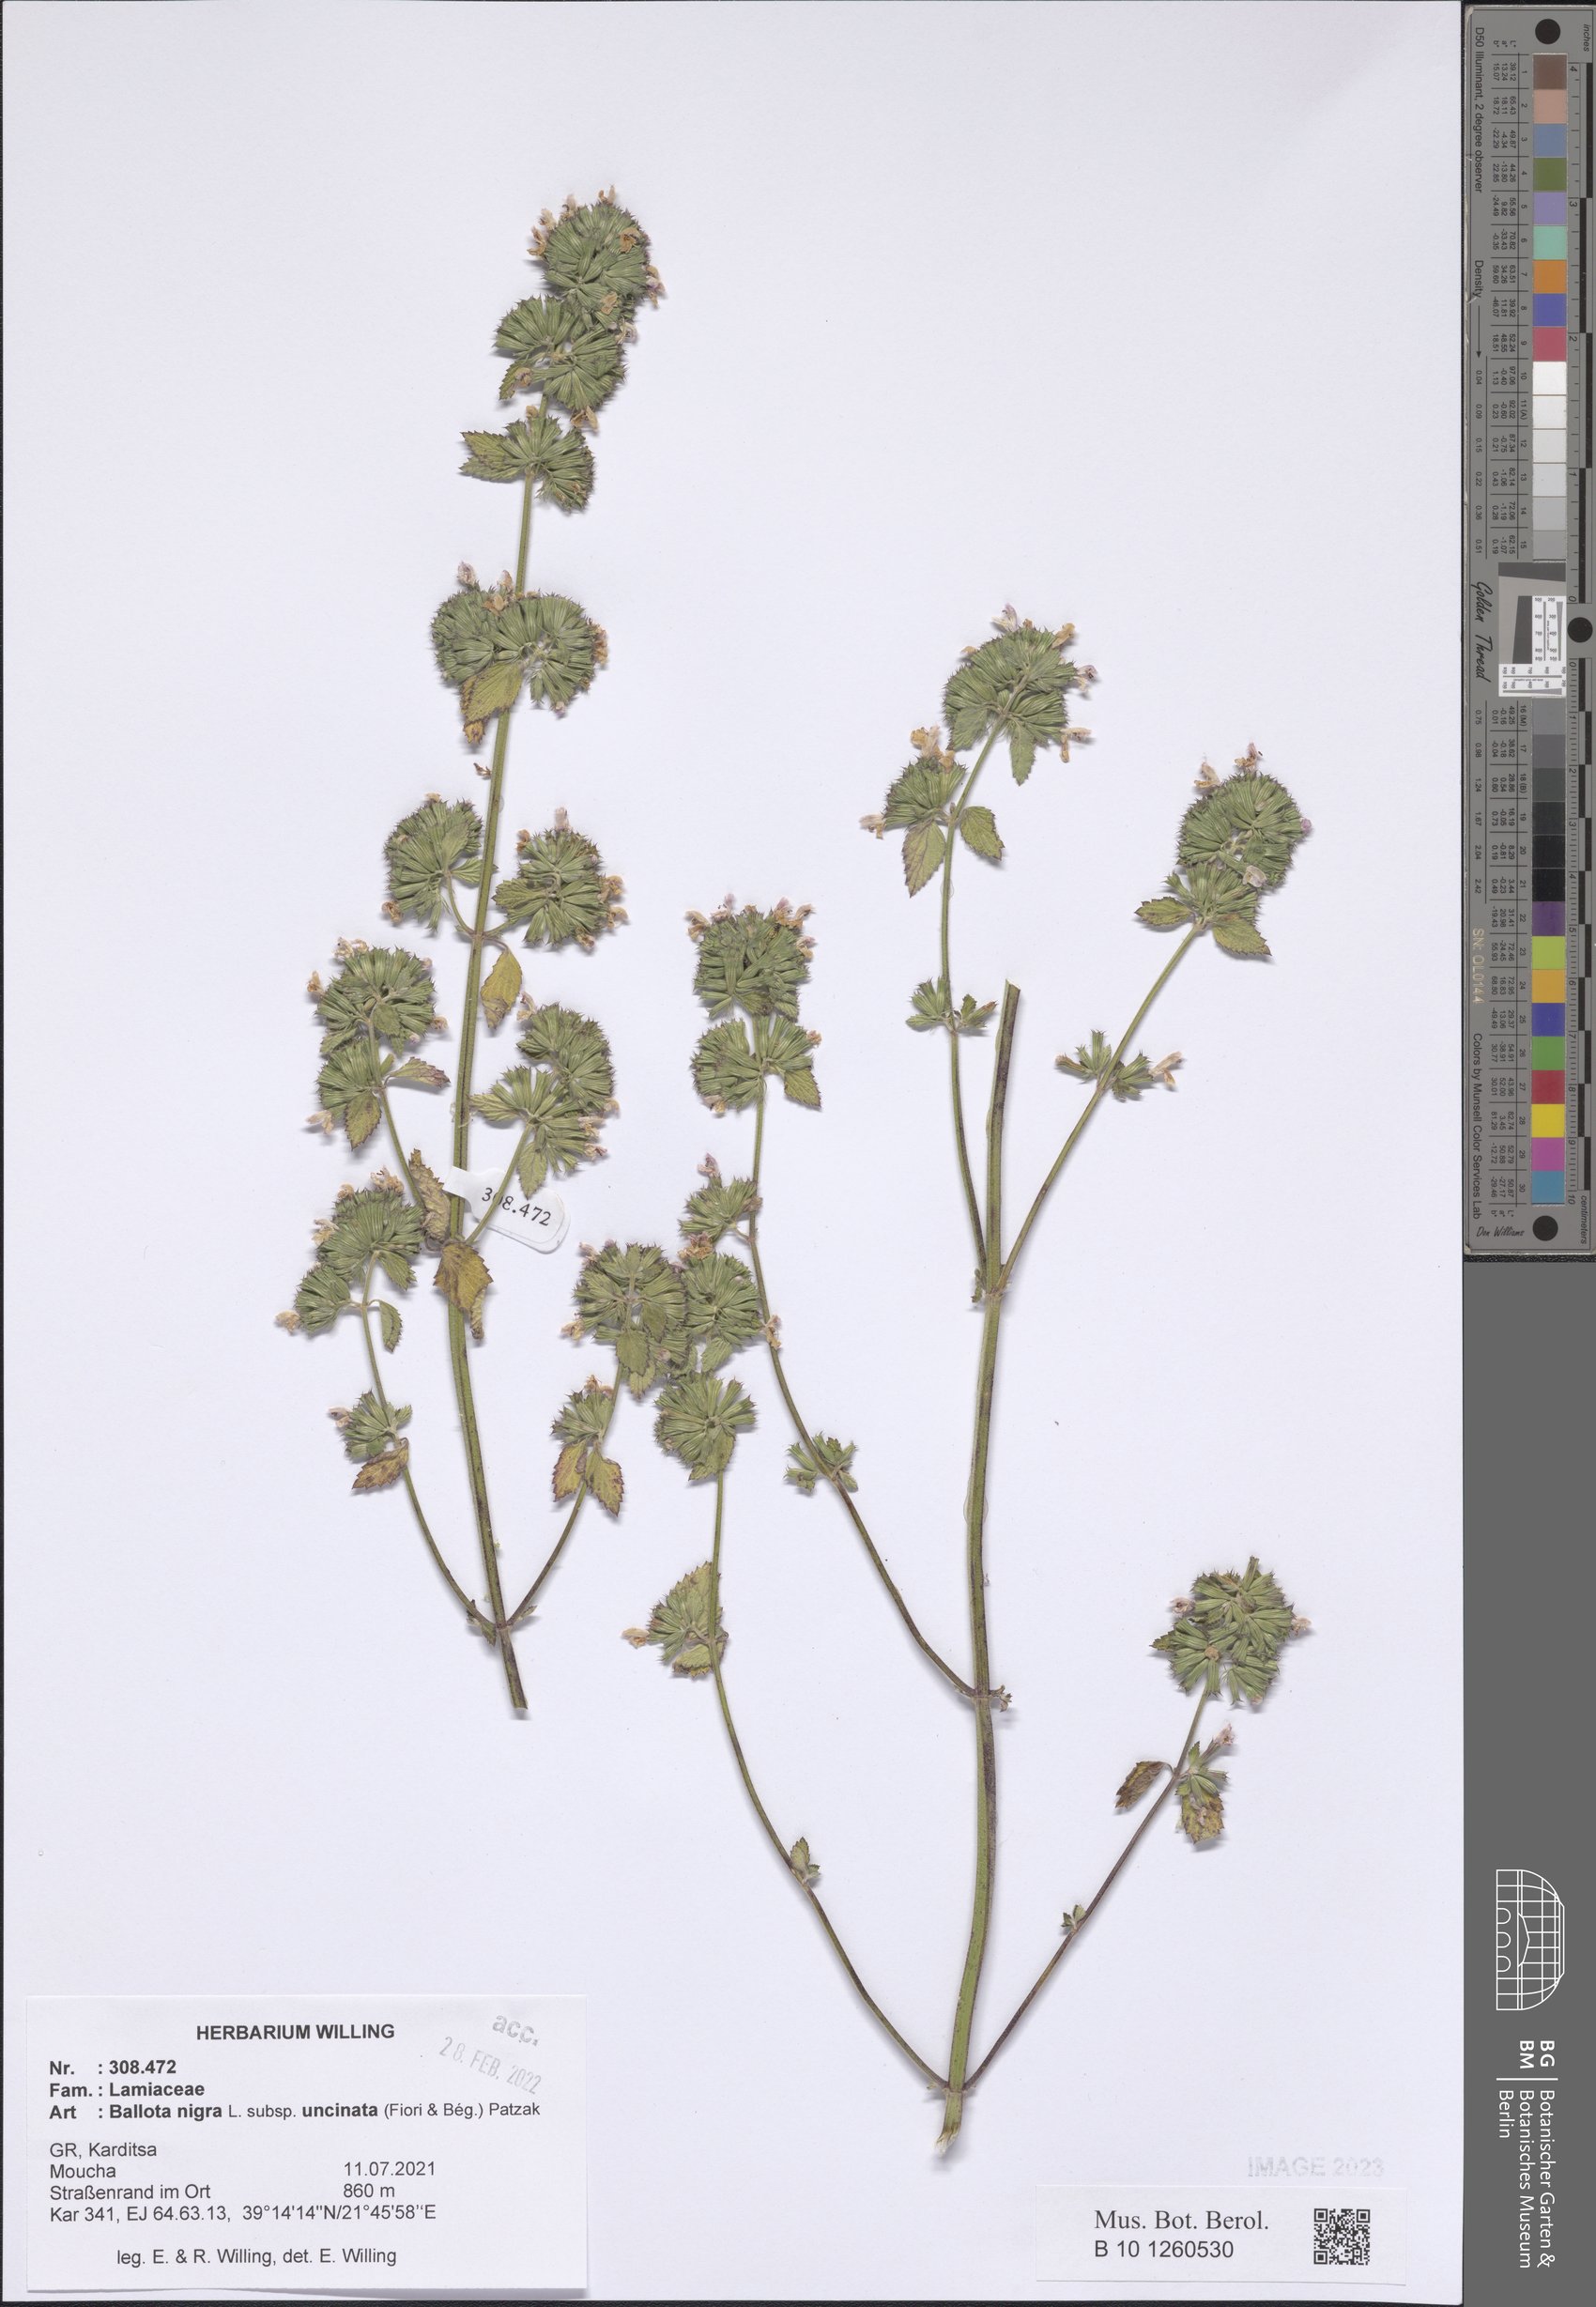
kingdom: Plantae
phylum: Tracheophyta
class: Magnoliopsida
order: Lamiales
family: Lamiaceae
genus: Ballota
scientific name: Ballota nigra
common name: Black horehound
